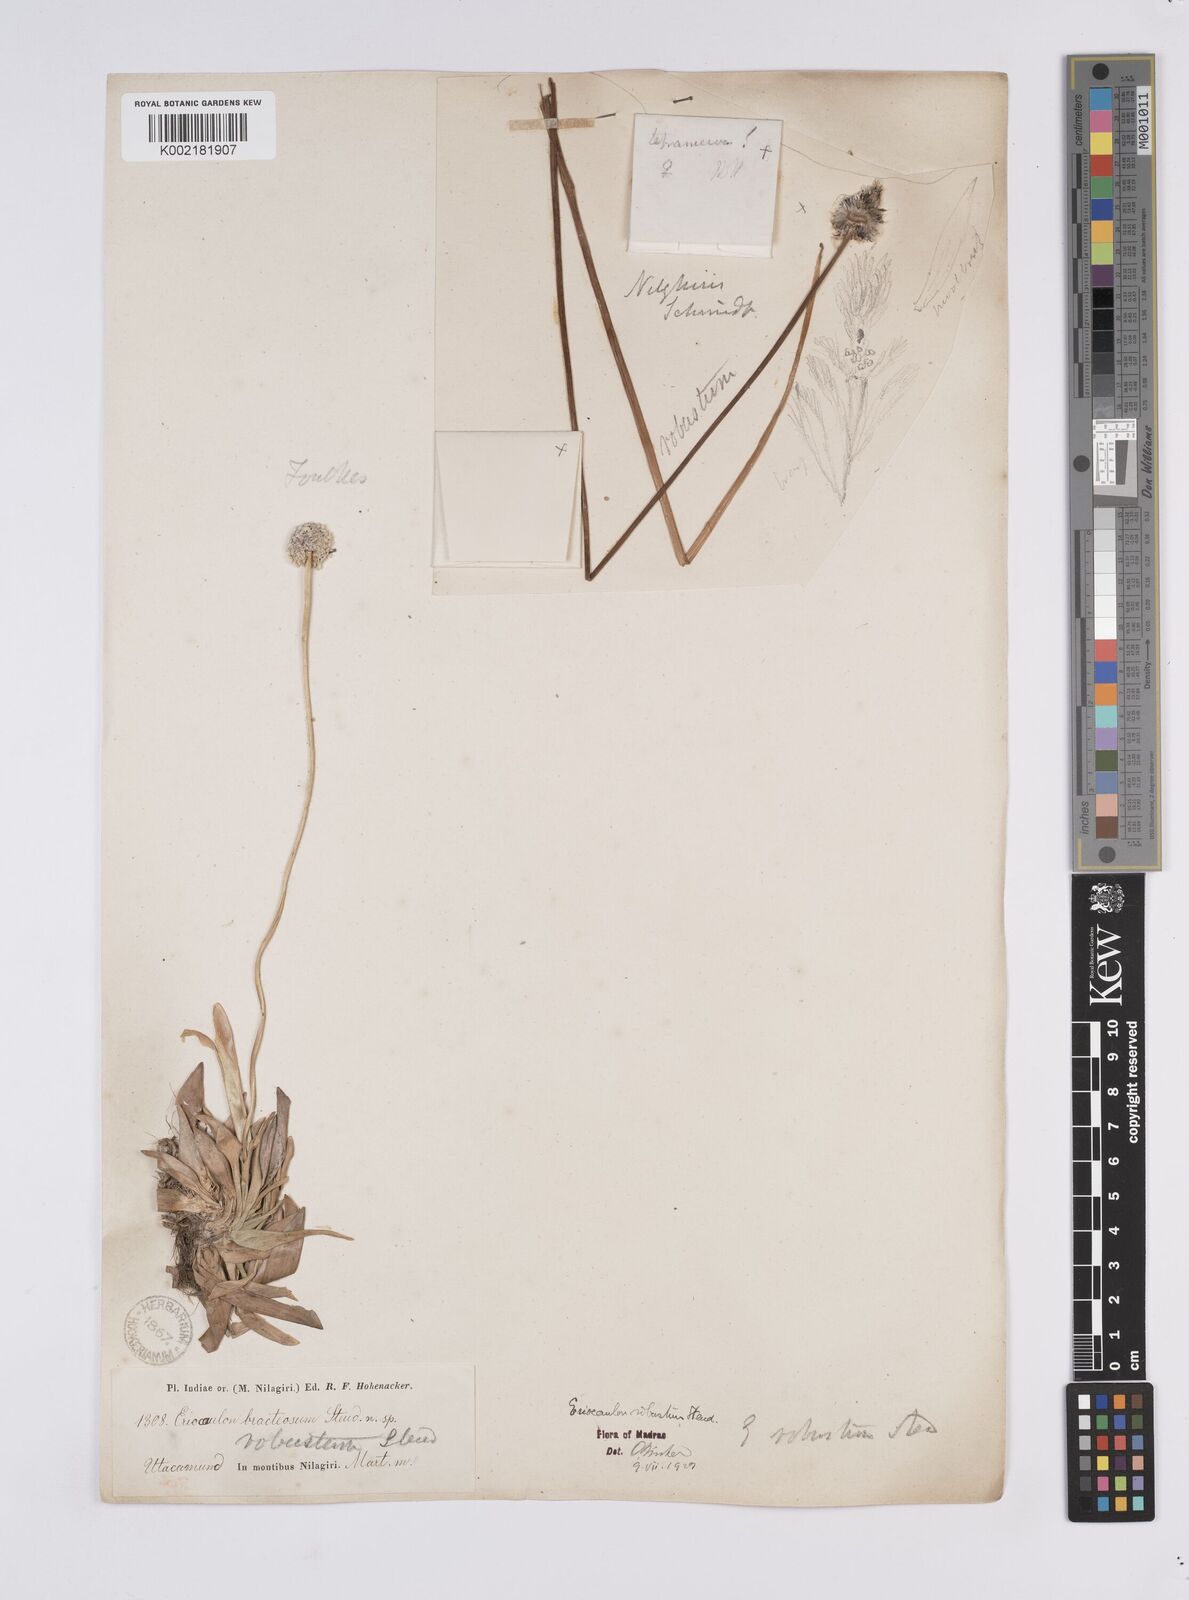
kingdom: Plantae
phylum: Tracheophyta
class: Liliopsida
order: Poales
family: Eriocaulaceae
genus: Eriocaulon
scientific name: Eriocaulon robustum
